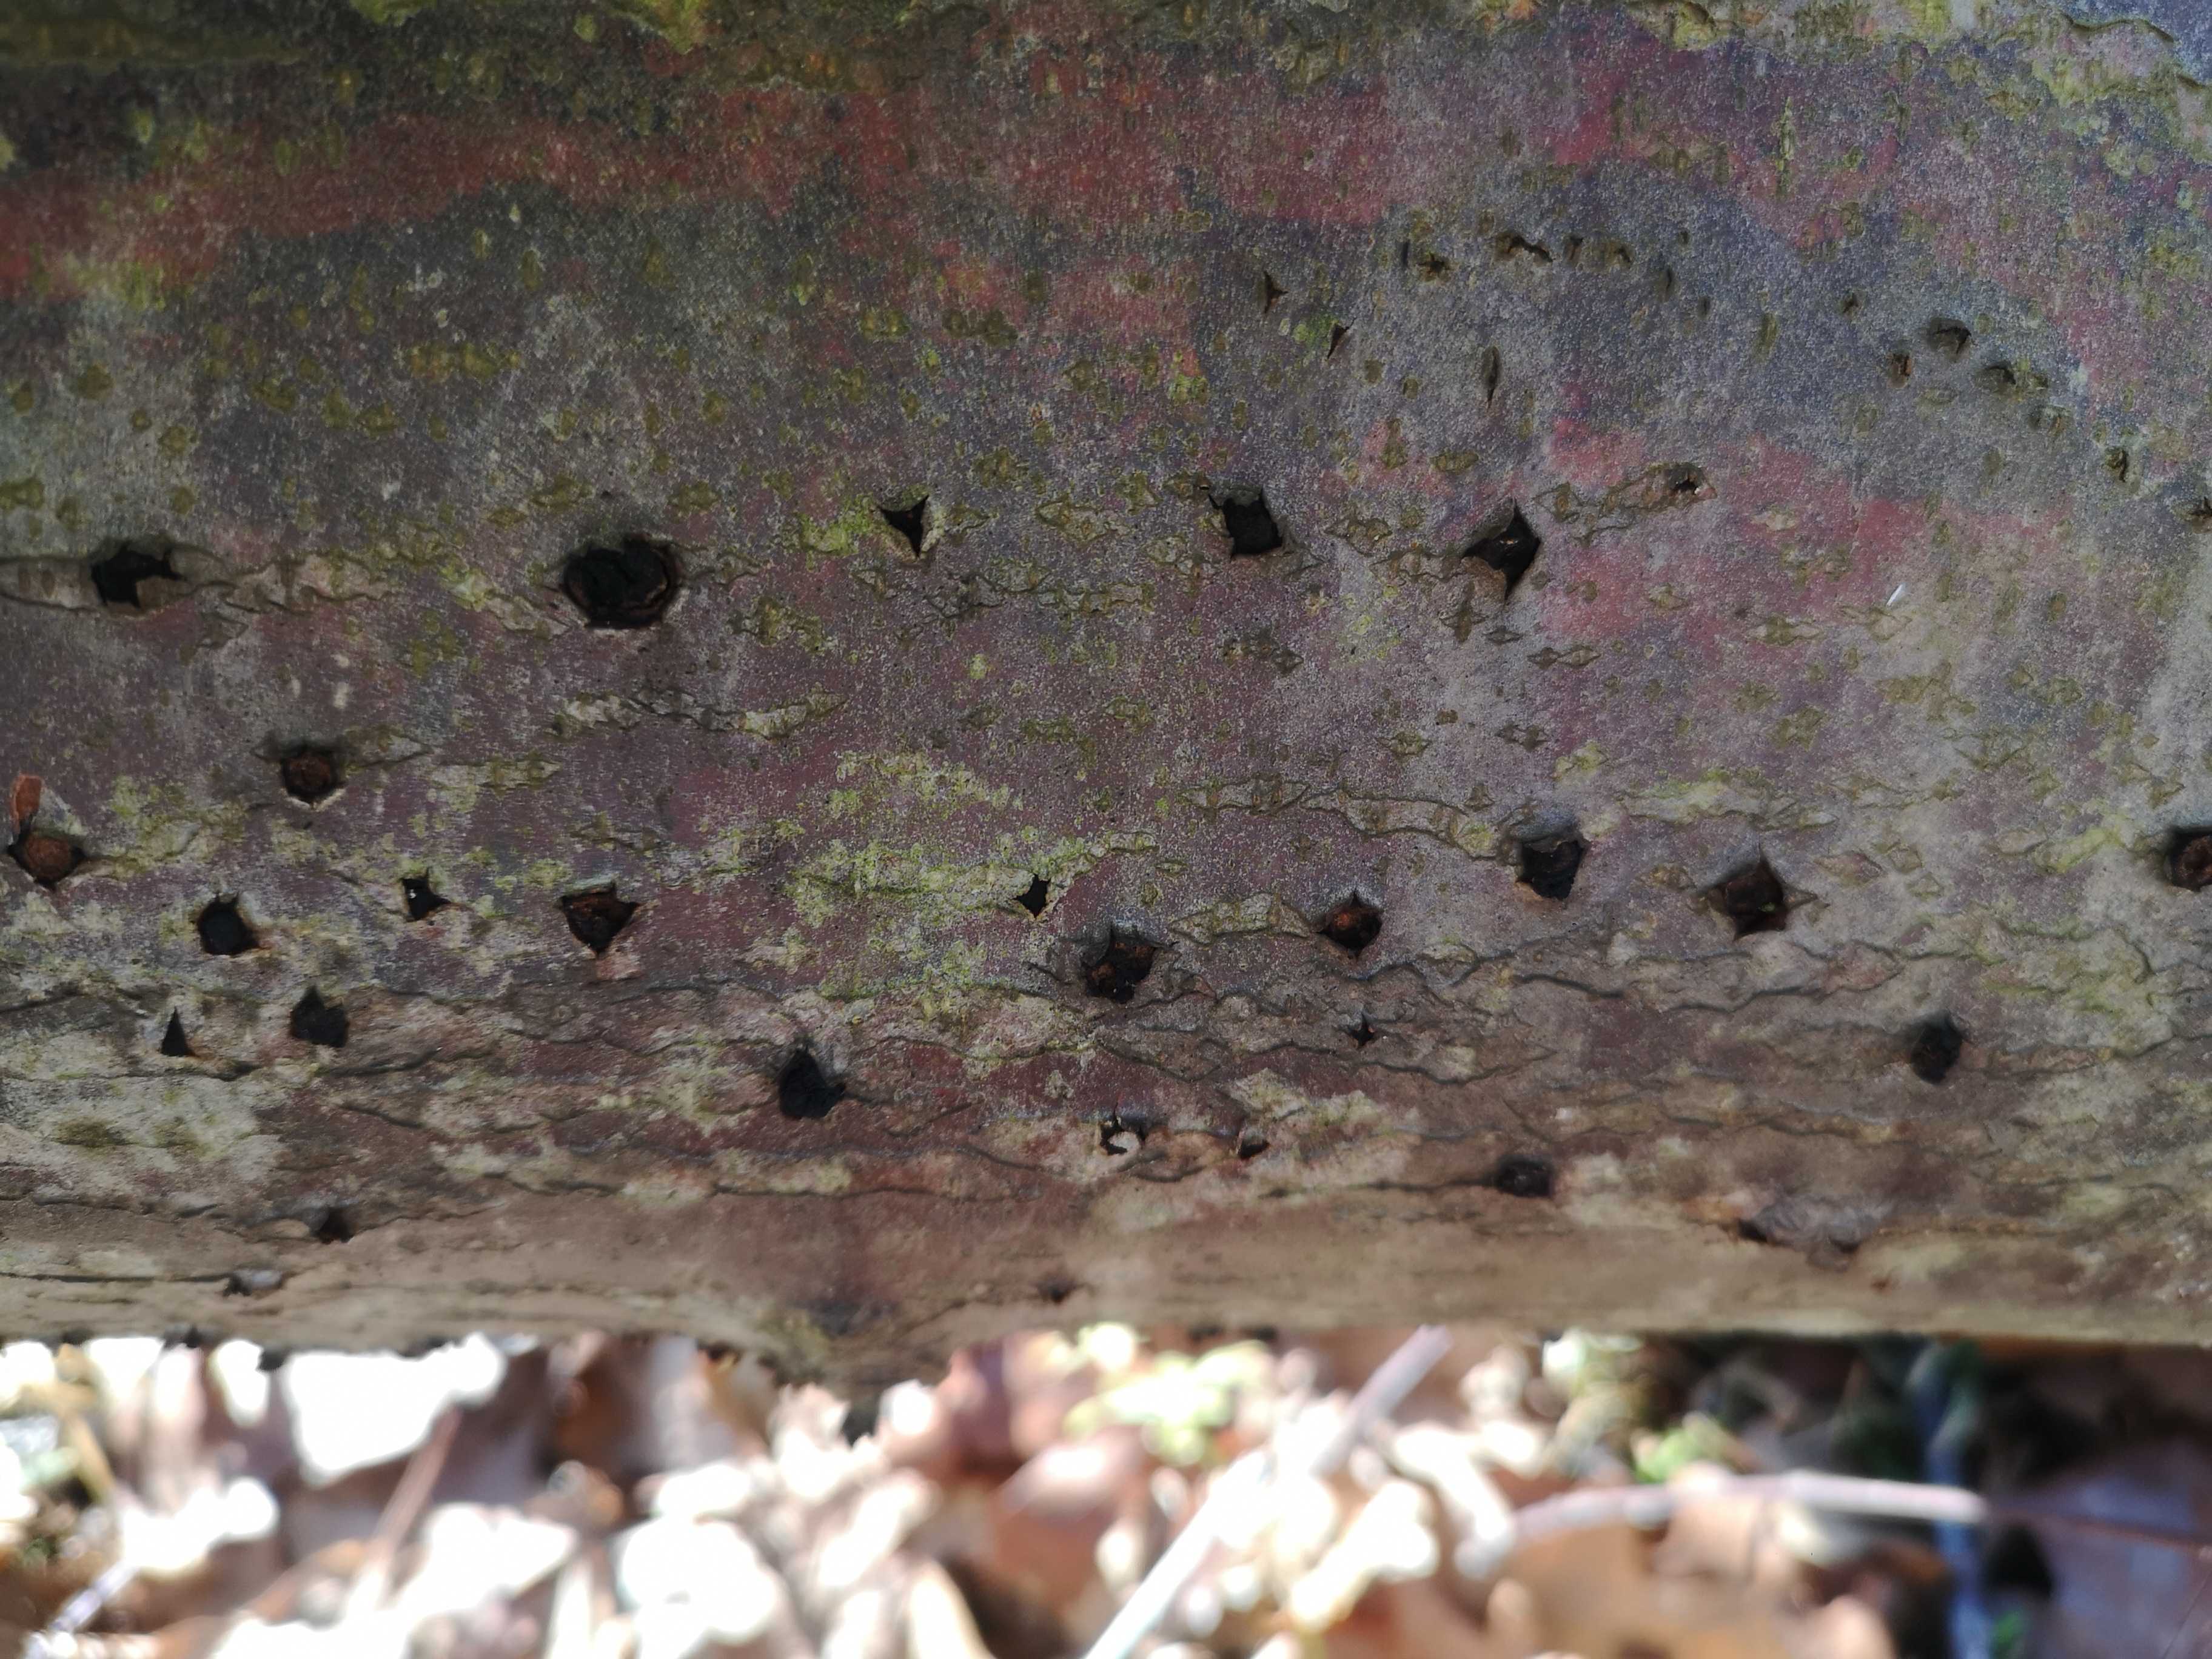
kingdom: Fungi
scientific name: Fungi
